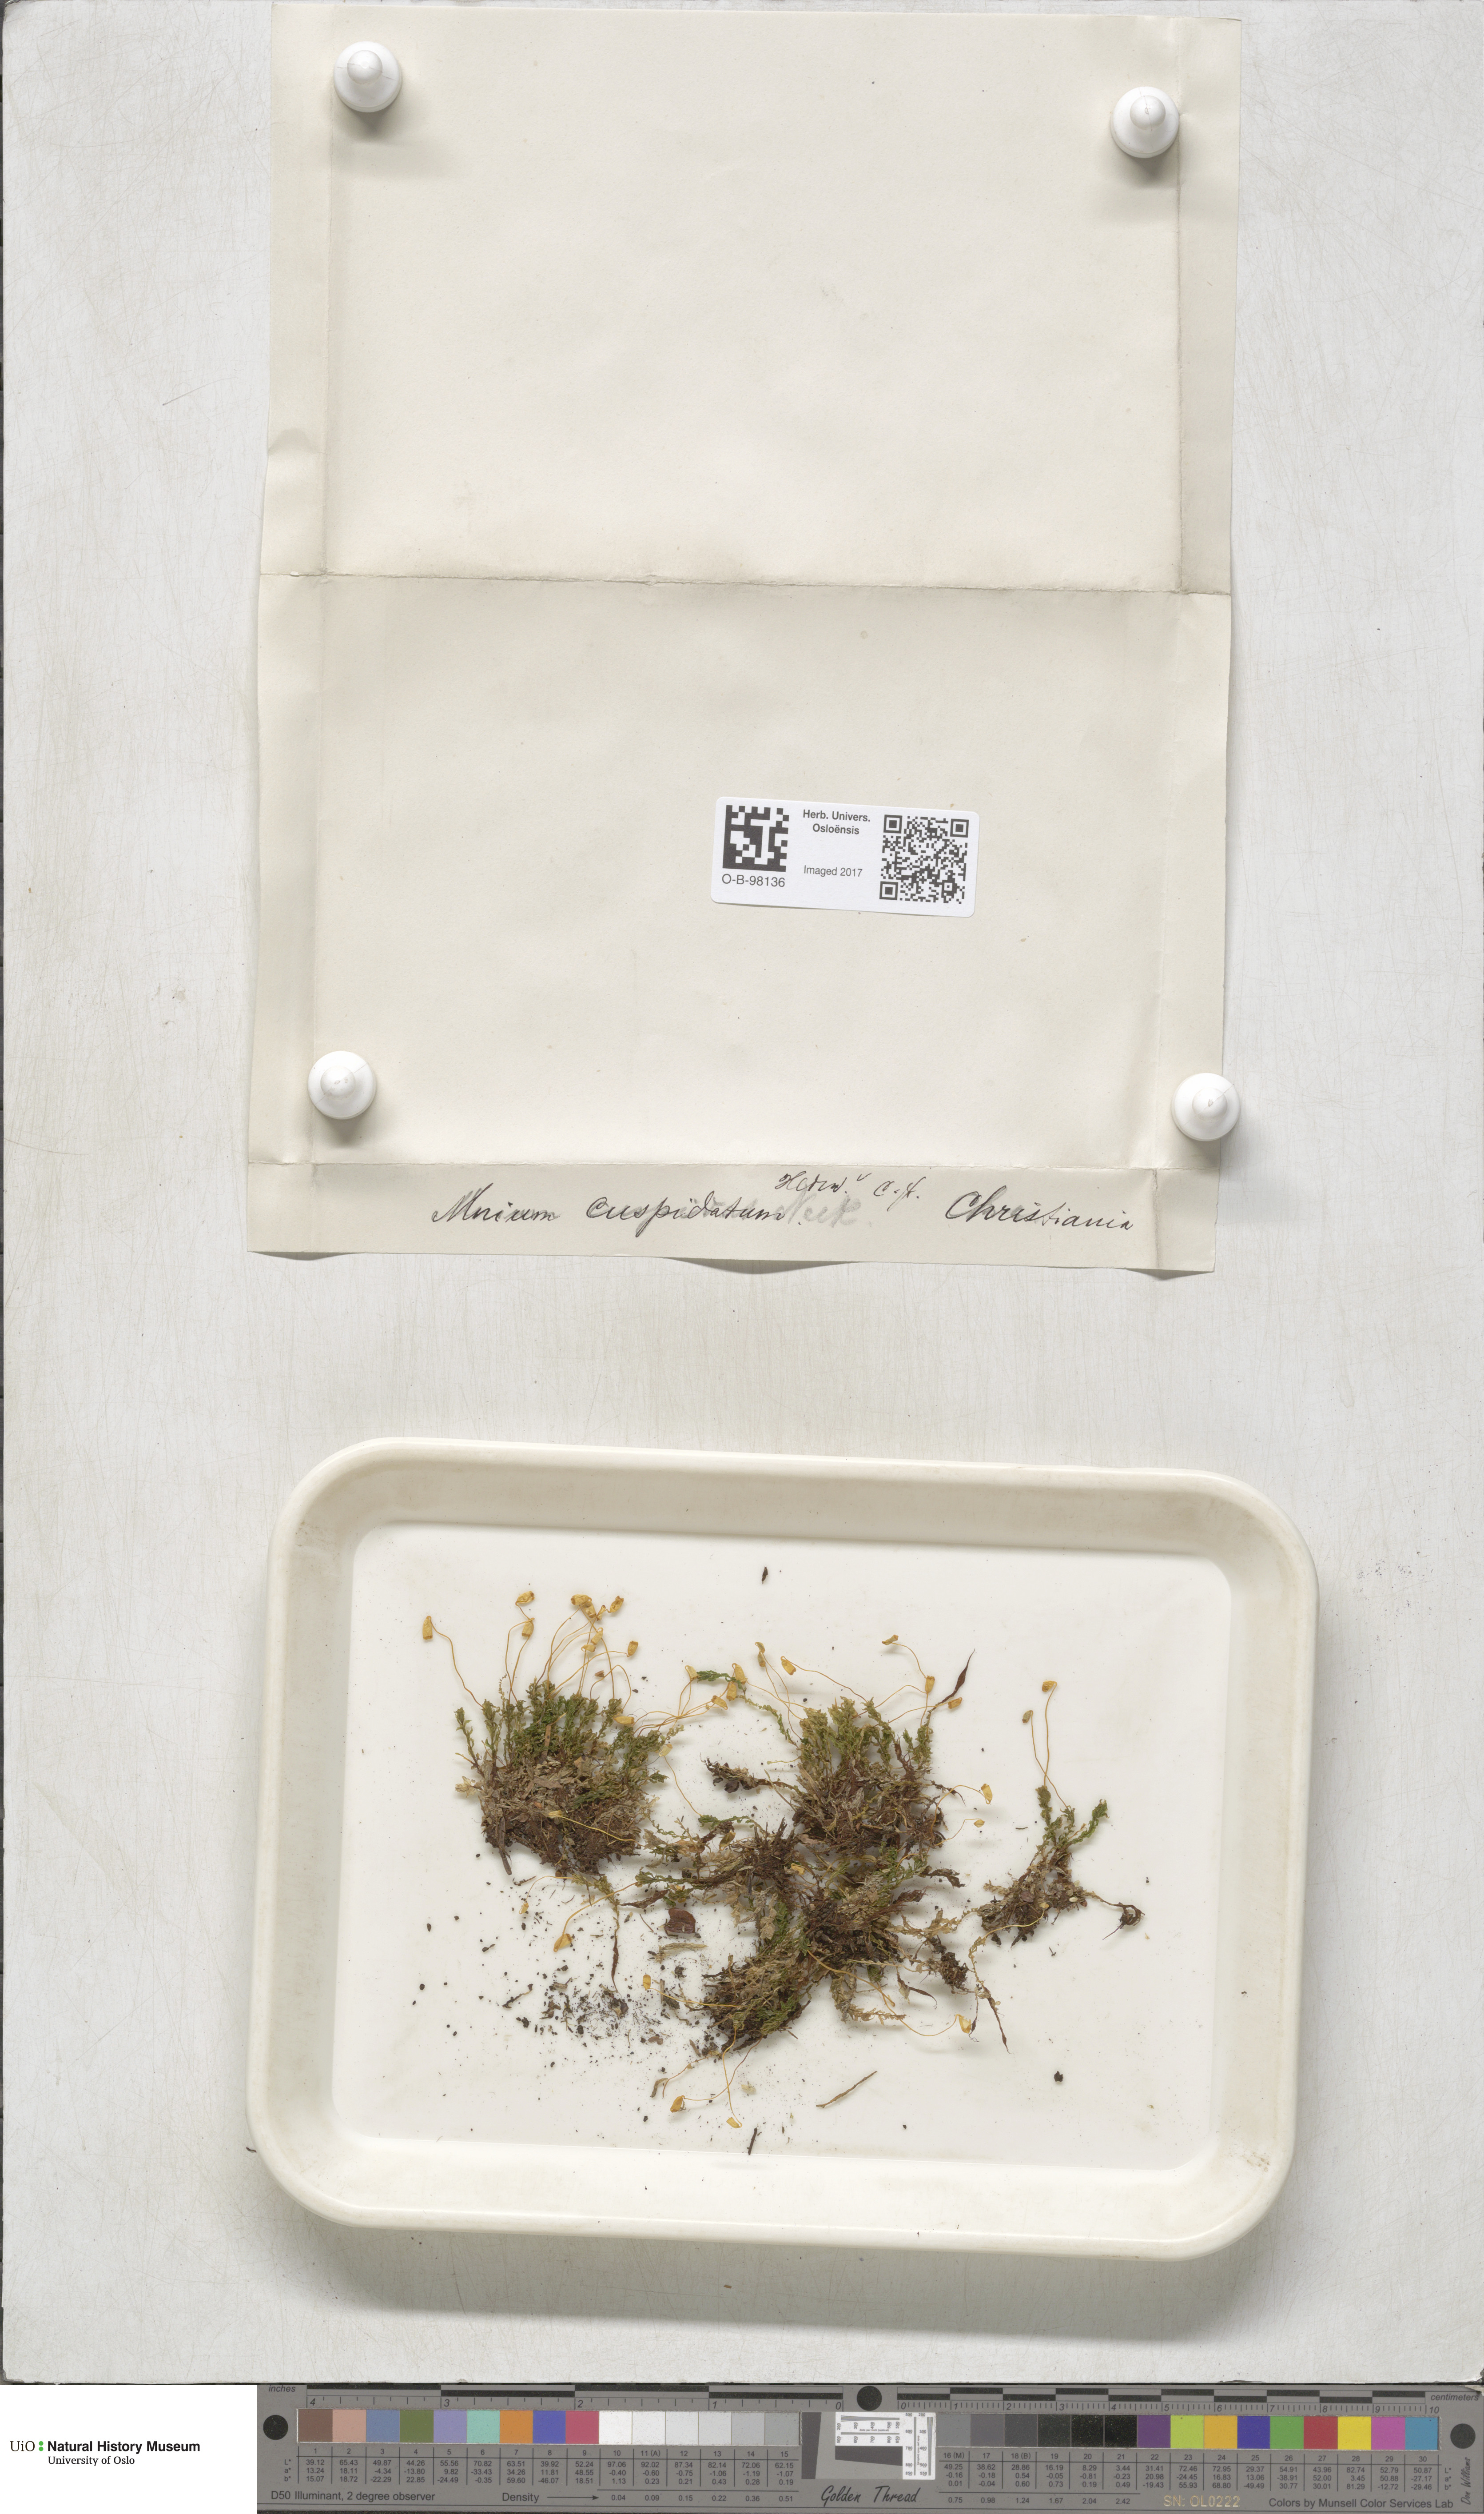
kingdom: Plantae
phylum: Bryophyta
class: Bryopsida
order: Bryales
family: Mniaceae
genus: Plagiomnium
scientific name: Plagiomnium cuspidatum
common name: Woodsy leafy moss
